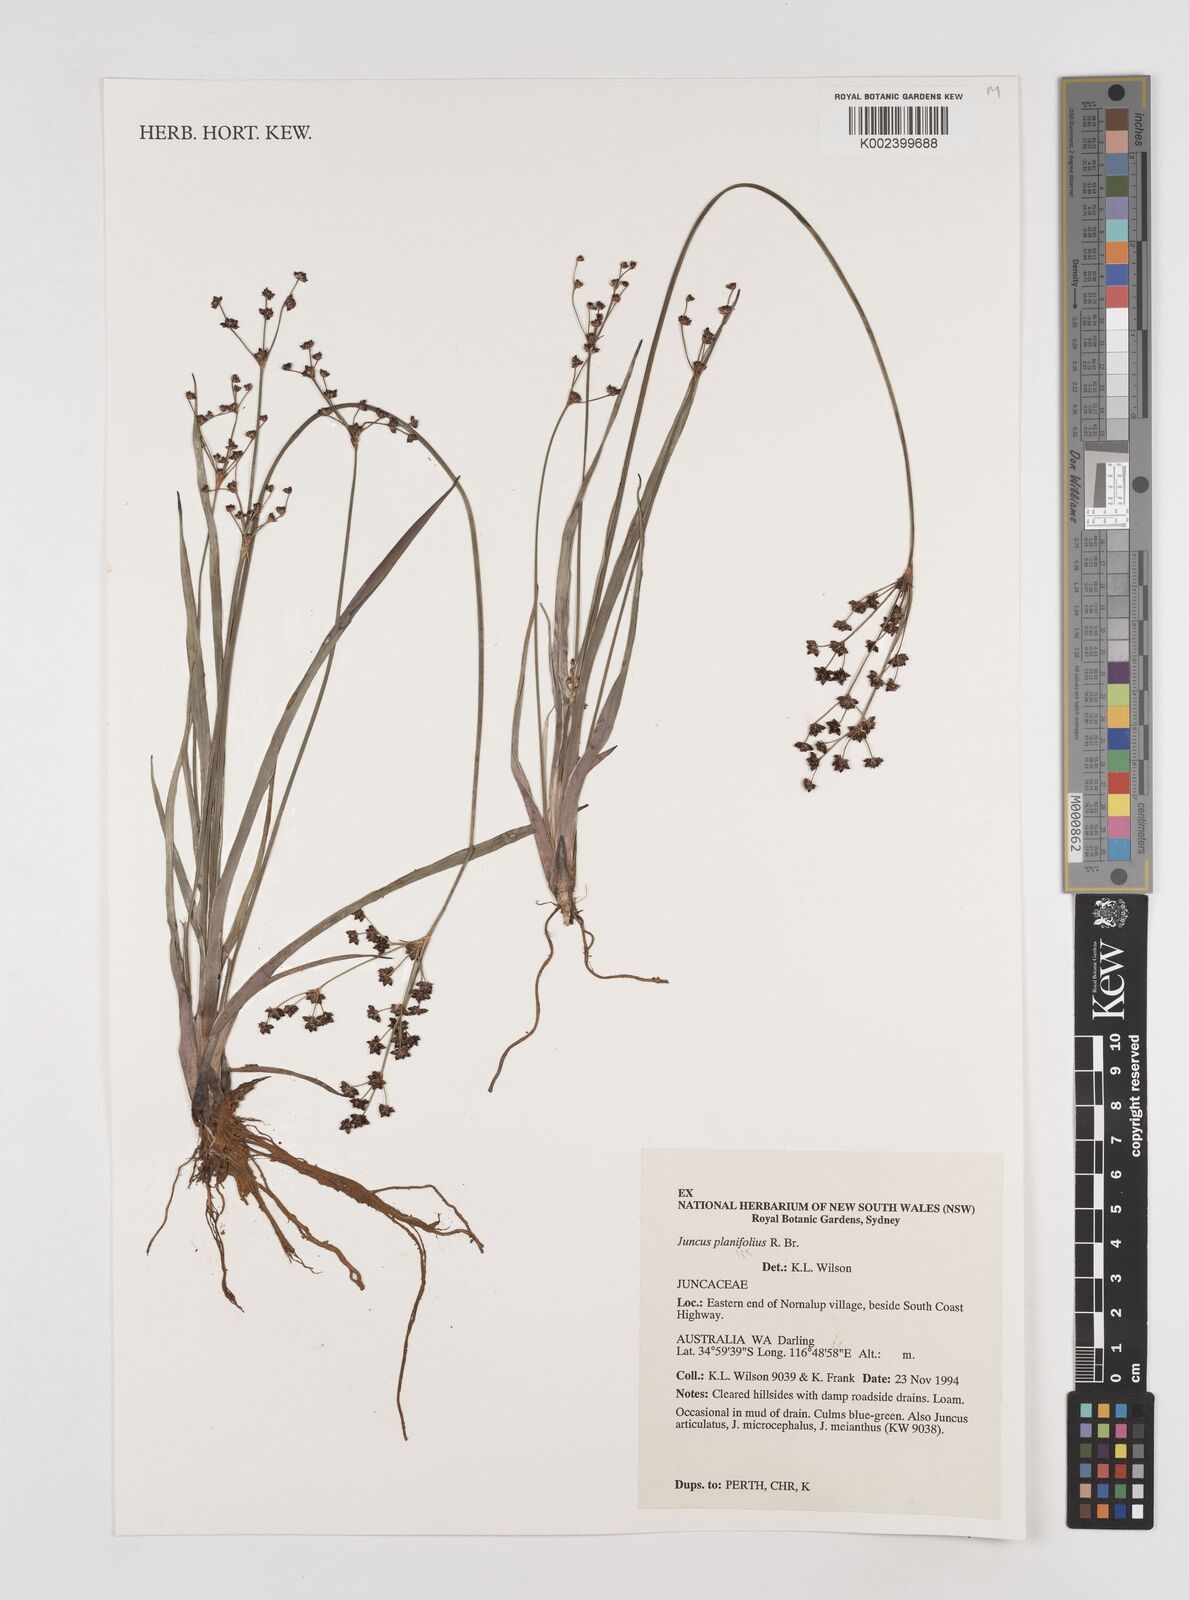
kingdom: Plantae
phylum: Tracheophyta
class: Liliopsida
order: Poales
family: Juncaceae
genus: Juncus
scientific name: Juncus planifolius
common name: Broadleaf rush
